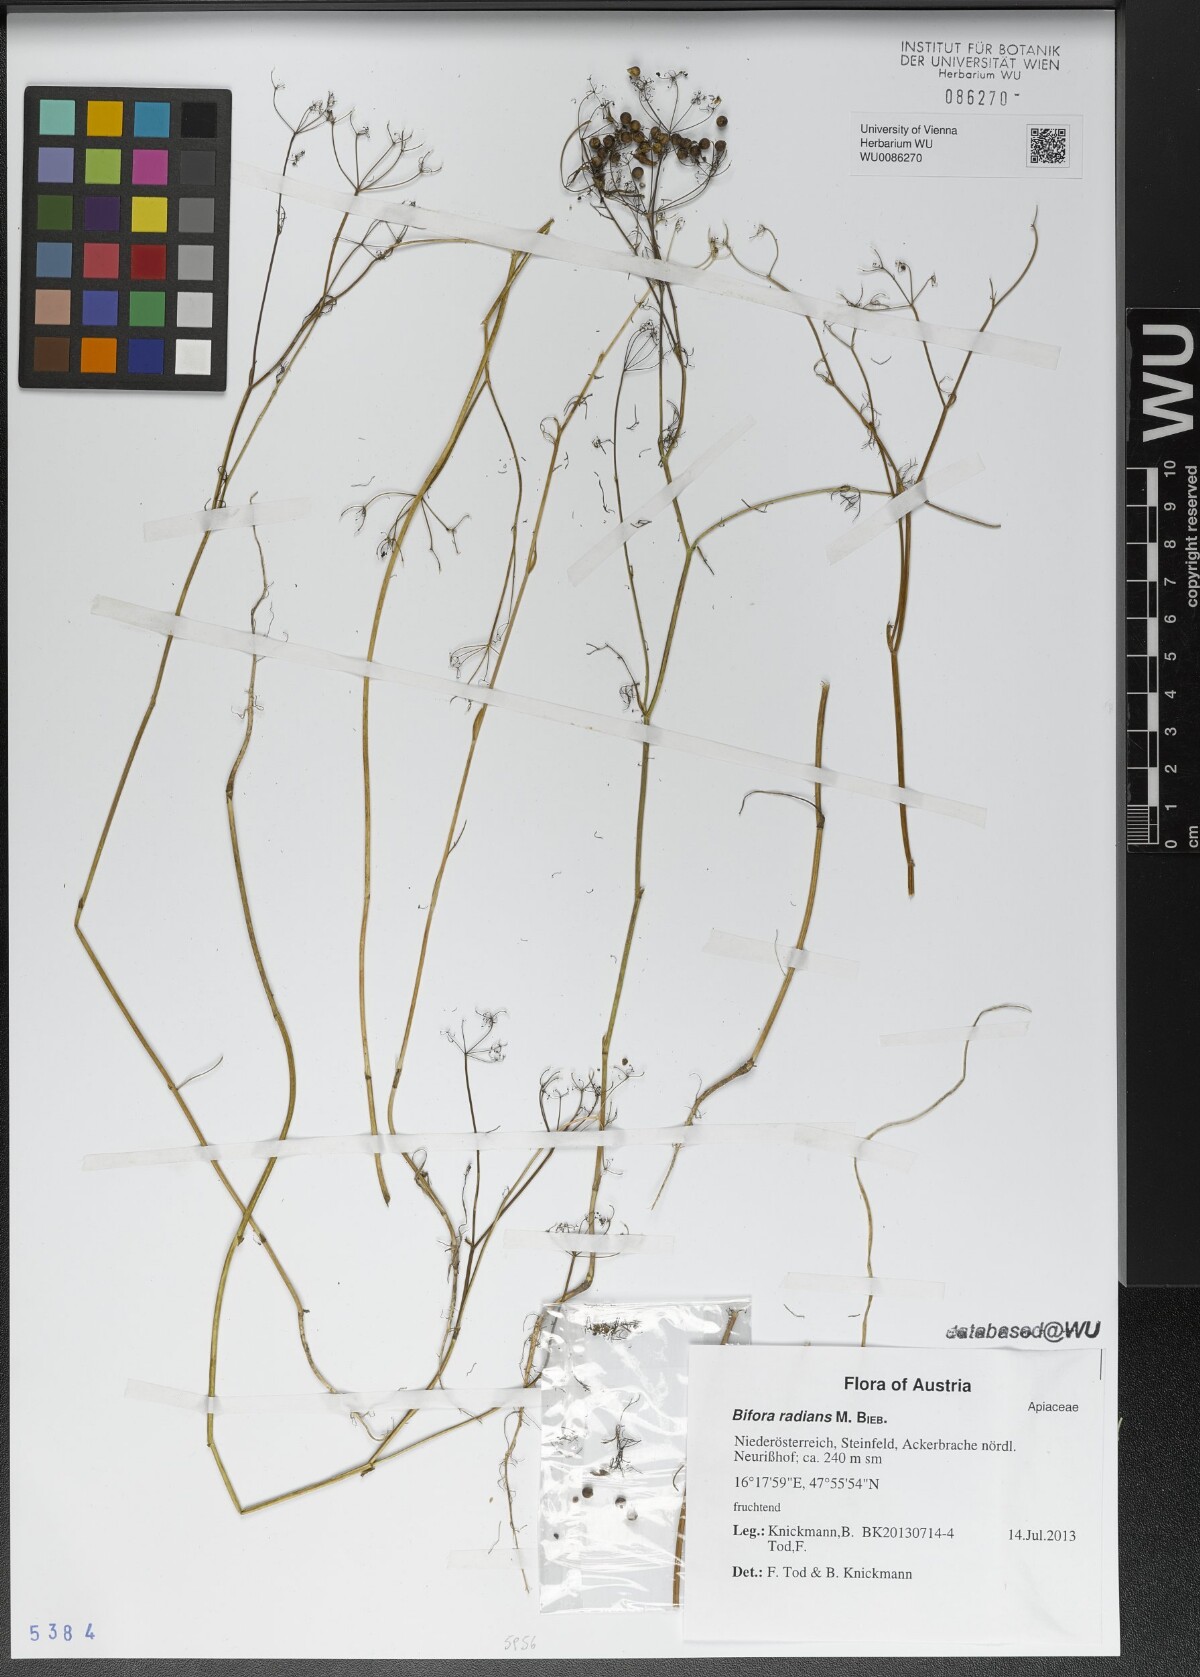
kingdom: Plantae
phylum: Tracheophyta
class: Magnoliopsida
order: Apiales
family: Apiaceae
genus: Bifora
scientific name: Bifora radians
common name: Wild bishop
